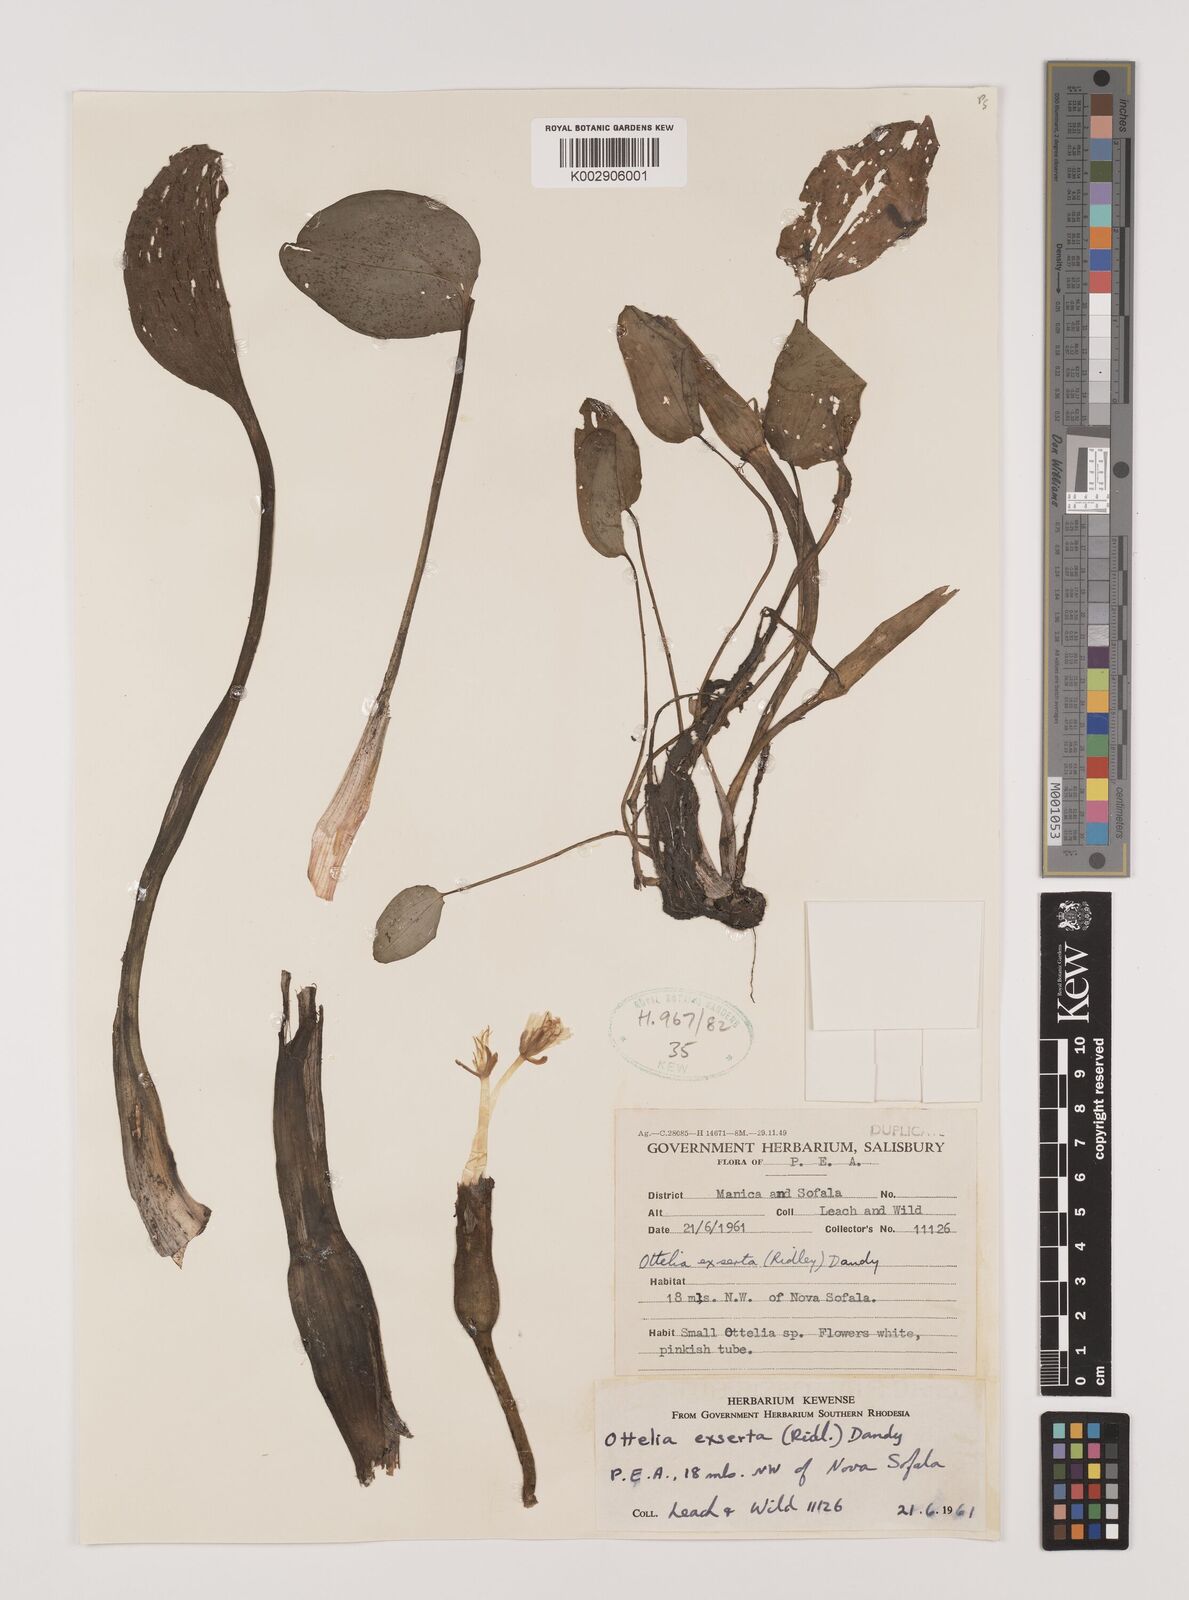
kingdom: Plantae
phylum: Tracheophyta
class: Liliopsida
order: Alismatales
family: Hydrocharitaceae
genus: Ottelia
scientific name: Ottelia exserta
